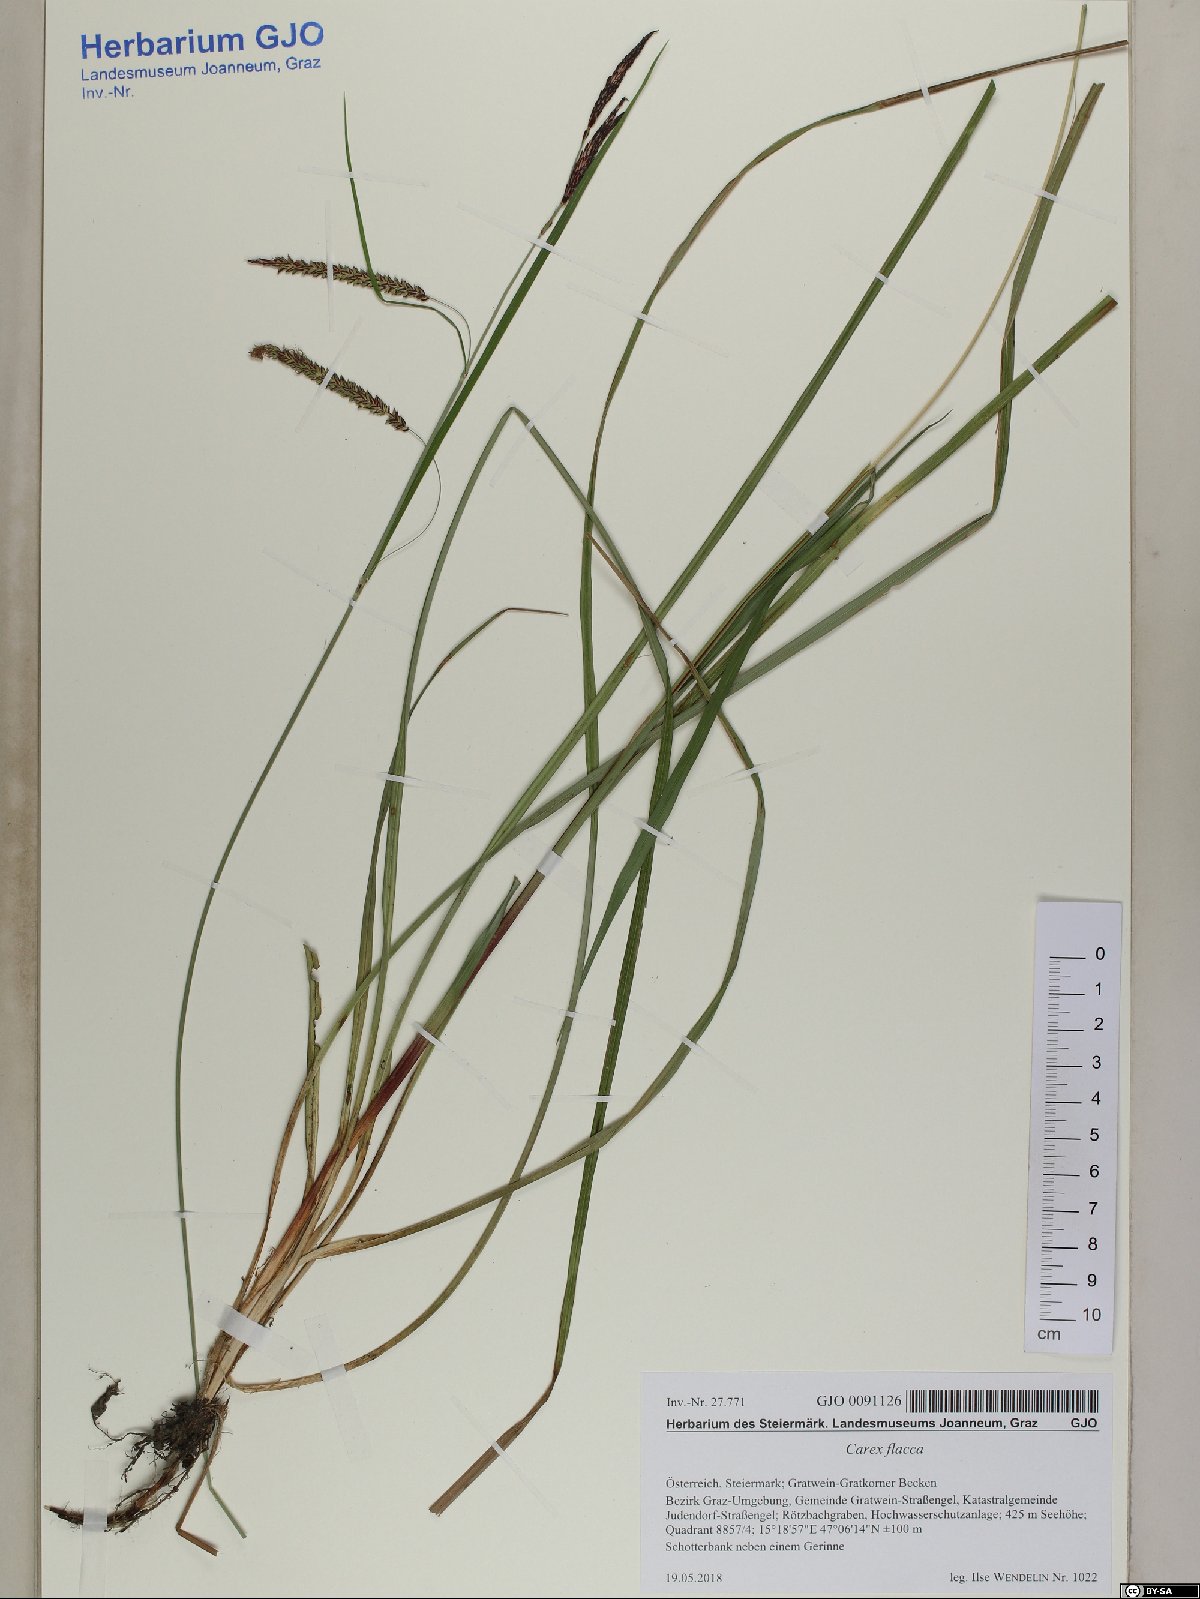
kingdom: Plantae
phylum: Tracheophyta
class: Liliopsida
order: Poales
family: Cyperaceae
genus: Carex
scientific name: Carex flacca
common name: Glaucous sedge
